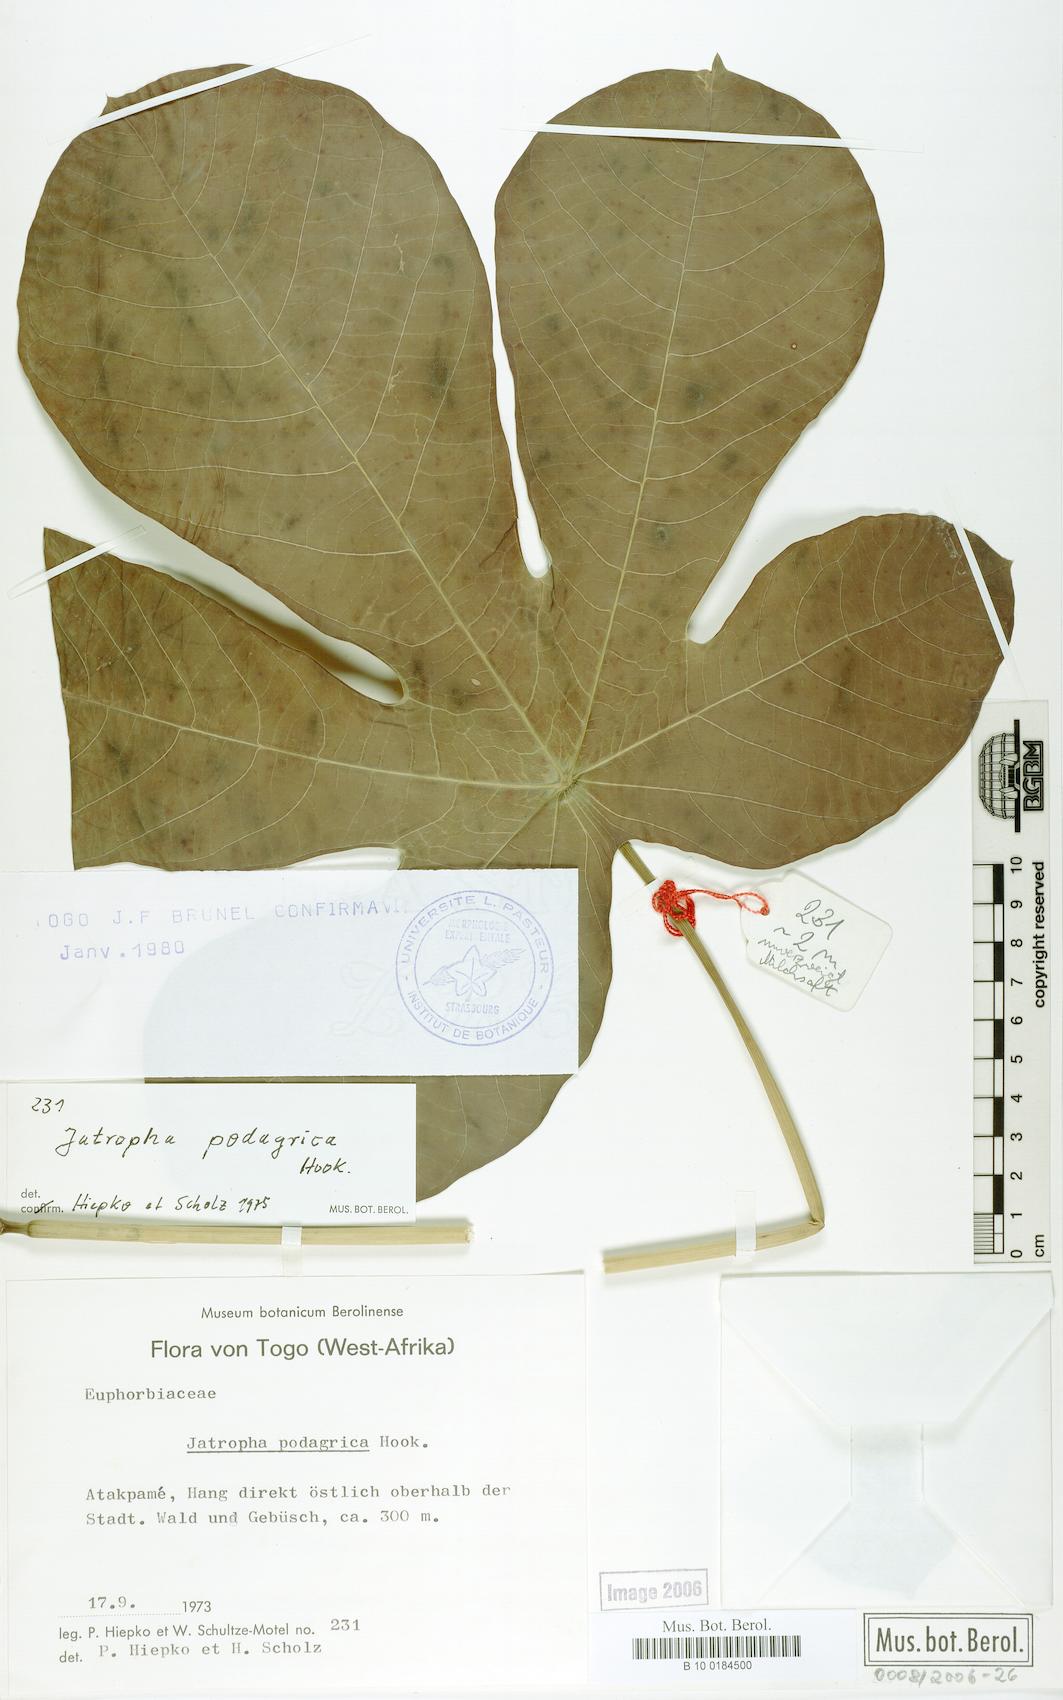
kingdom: Plantae
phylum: Tracheophyta
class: Magnoliopsida
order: Malpighiales
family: Euphorbiaceae
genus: Jatropha
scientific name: Jatropha podagrica
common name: Gout stalk
